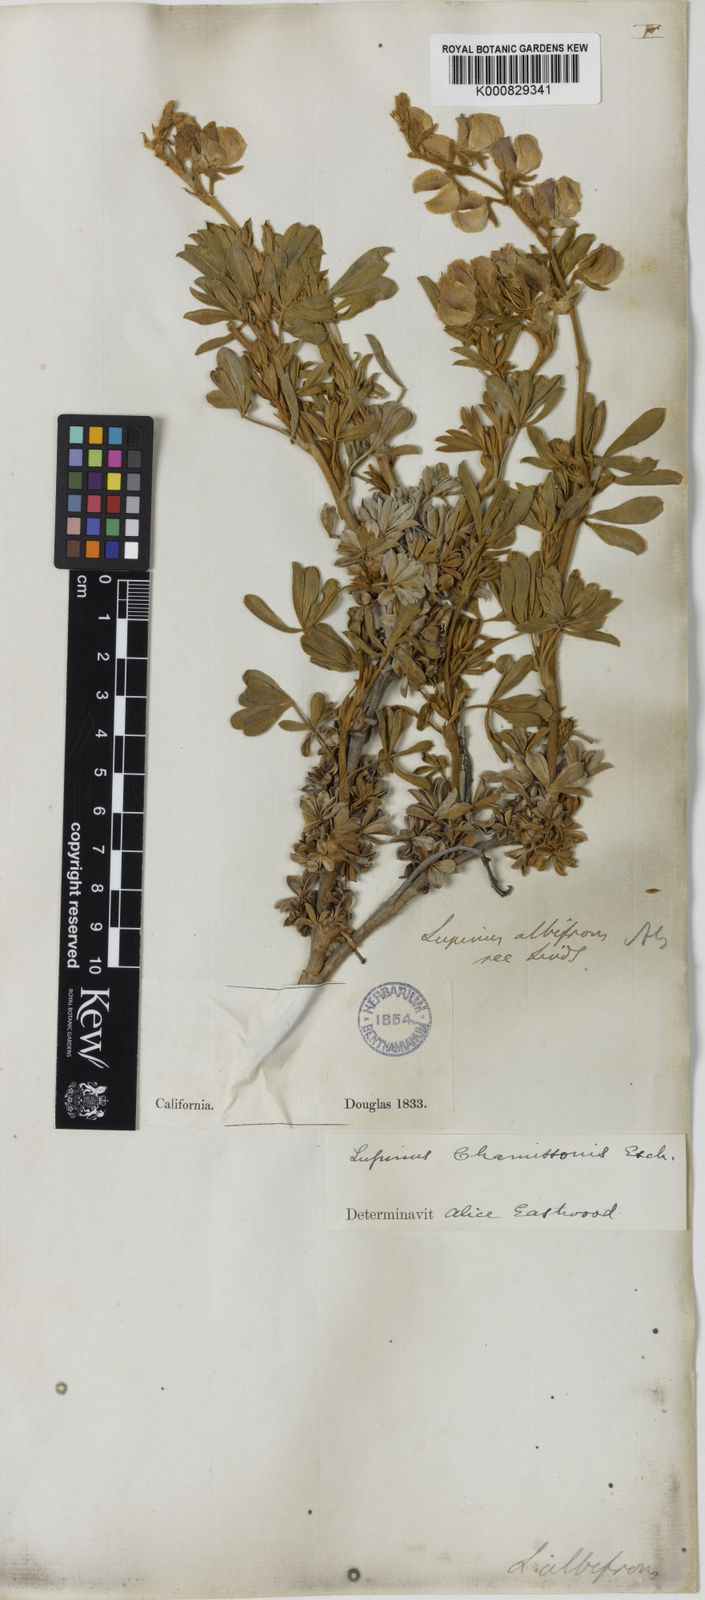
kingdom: Plantae
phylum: Tracheophyta
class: Magnoliopsida
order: Fabales
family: Fabaceae
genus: Lupinus
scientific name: Lupinus chamissonis
